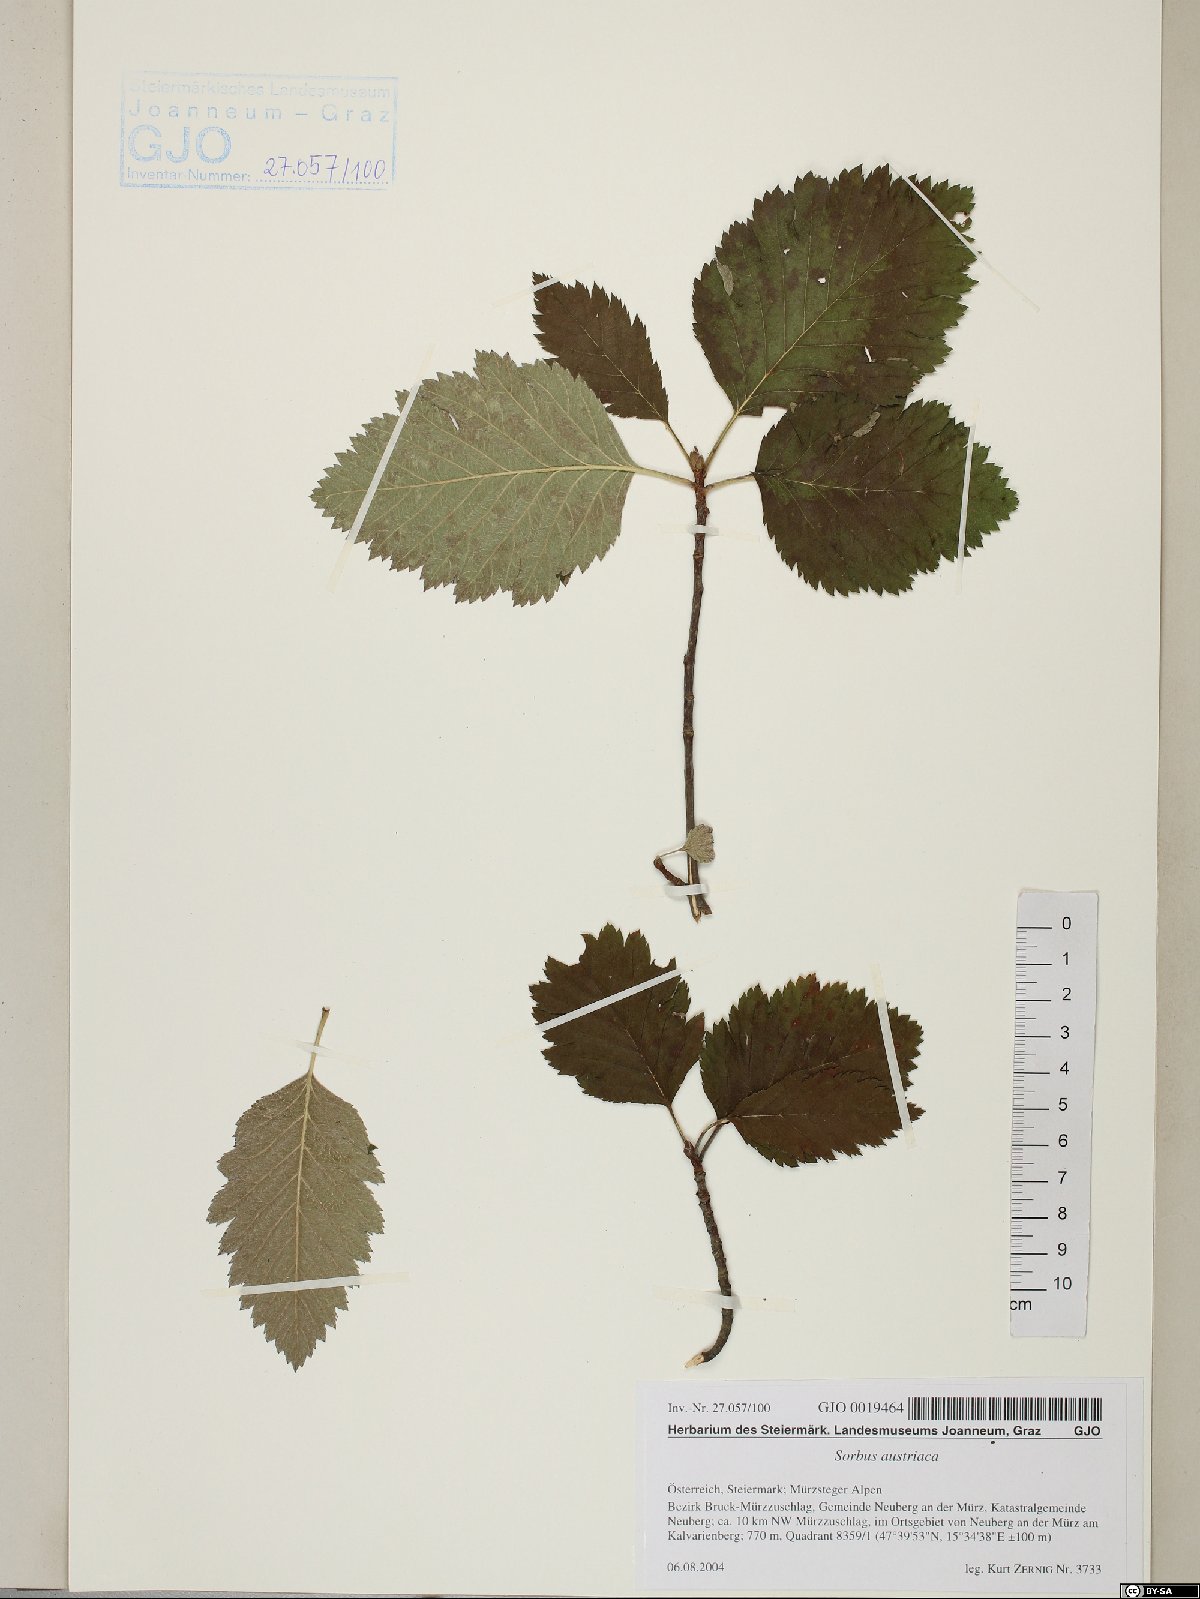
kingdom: Plantae
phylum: Tracheophyta
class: Magnoliopsida
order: Rosales
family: Rosaceae
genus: Hedlundia
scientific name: Hedlundia austriaca
